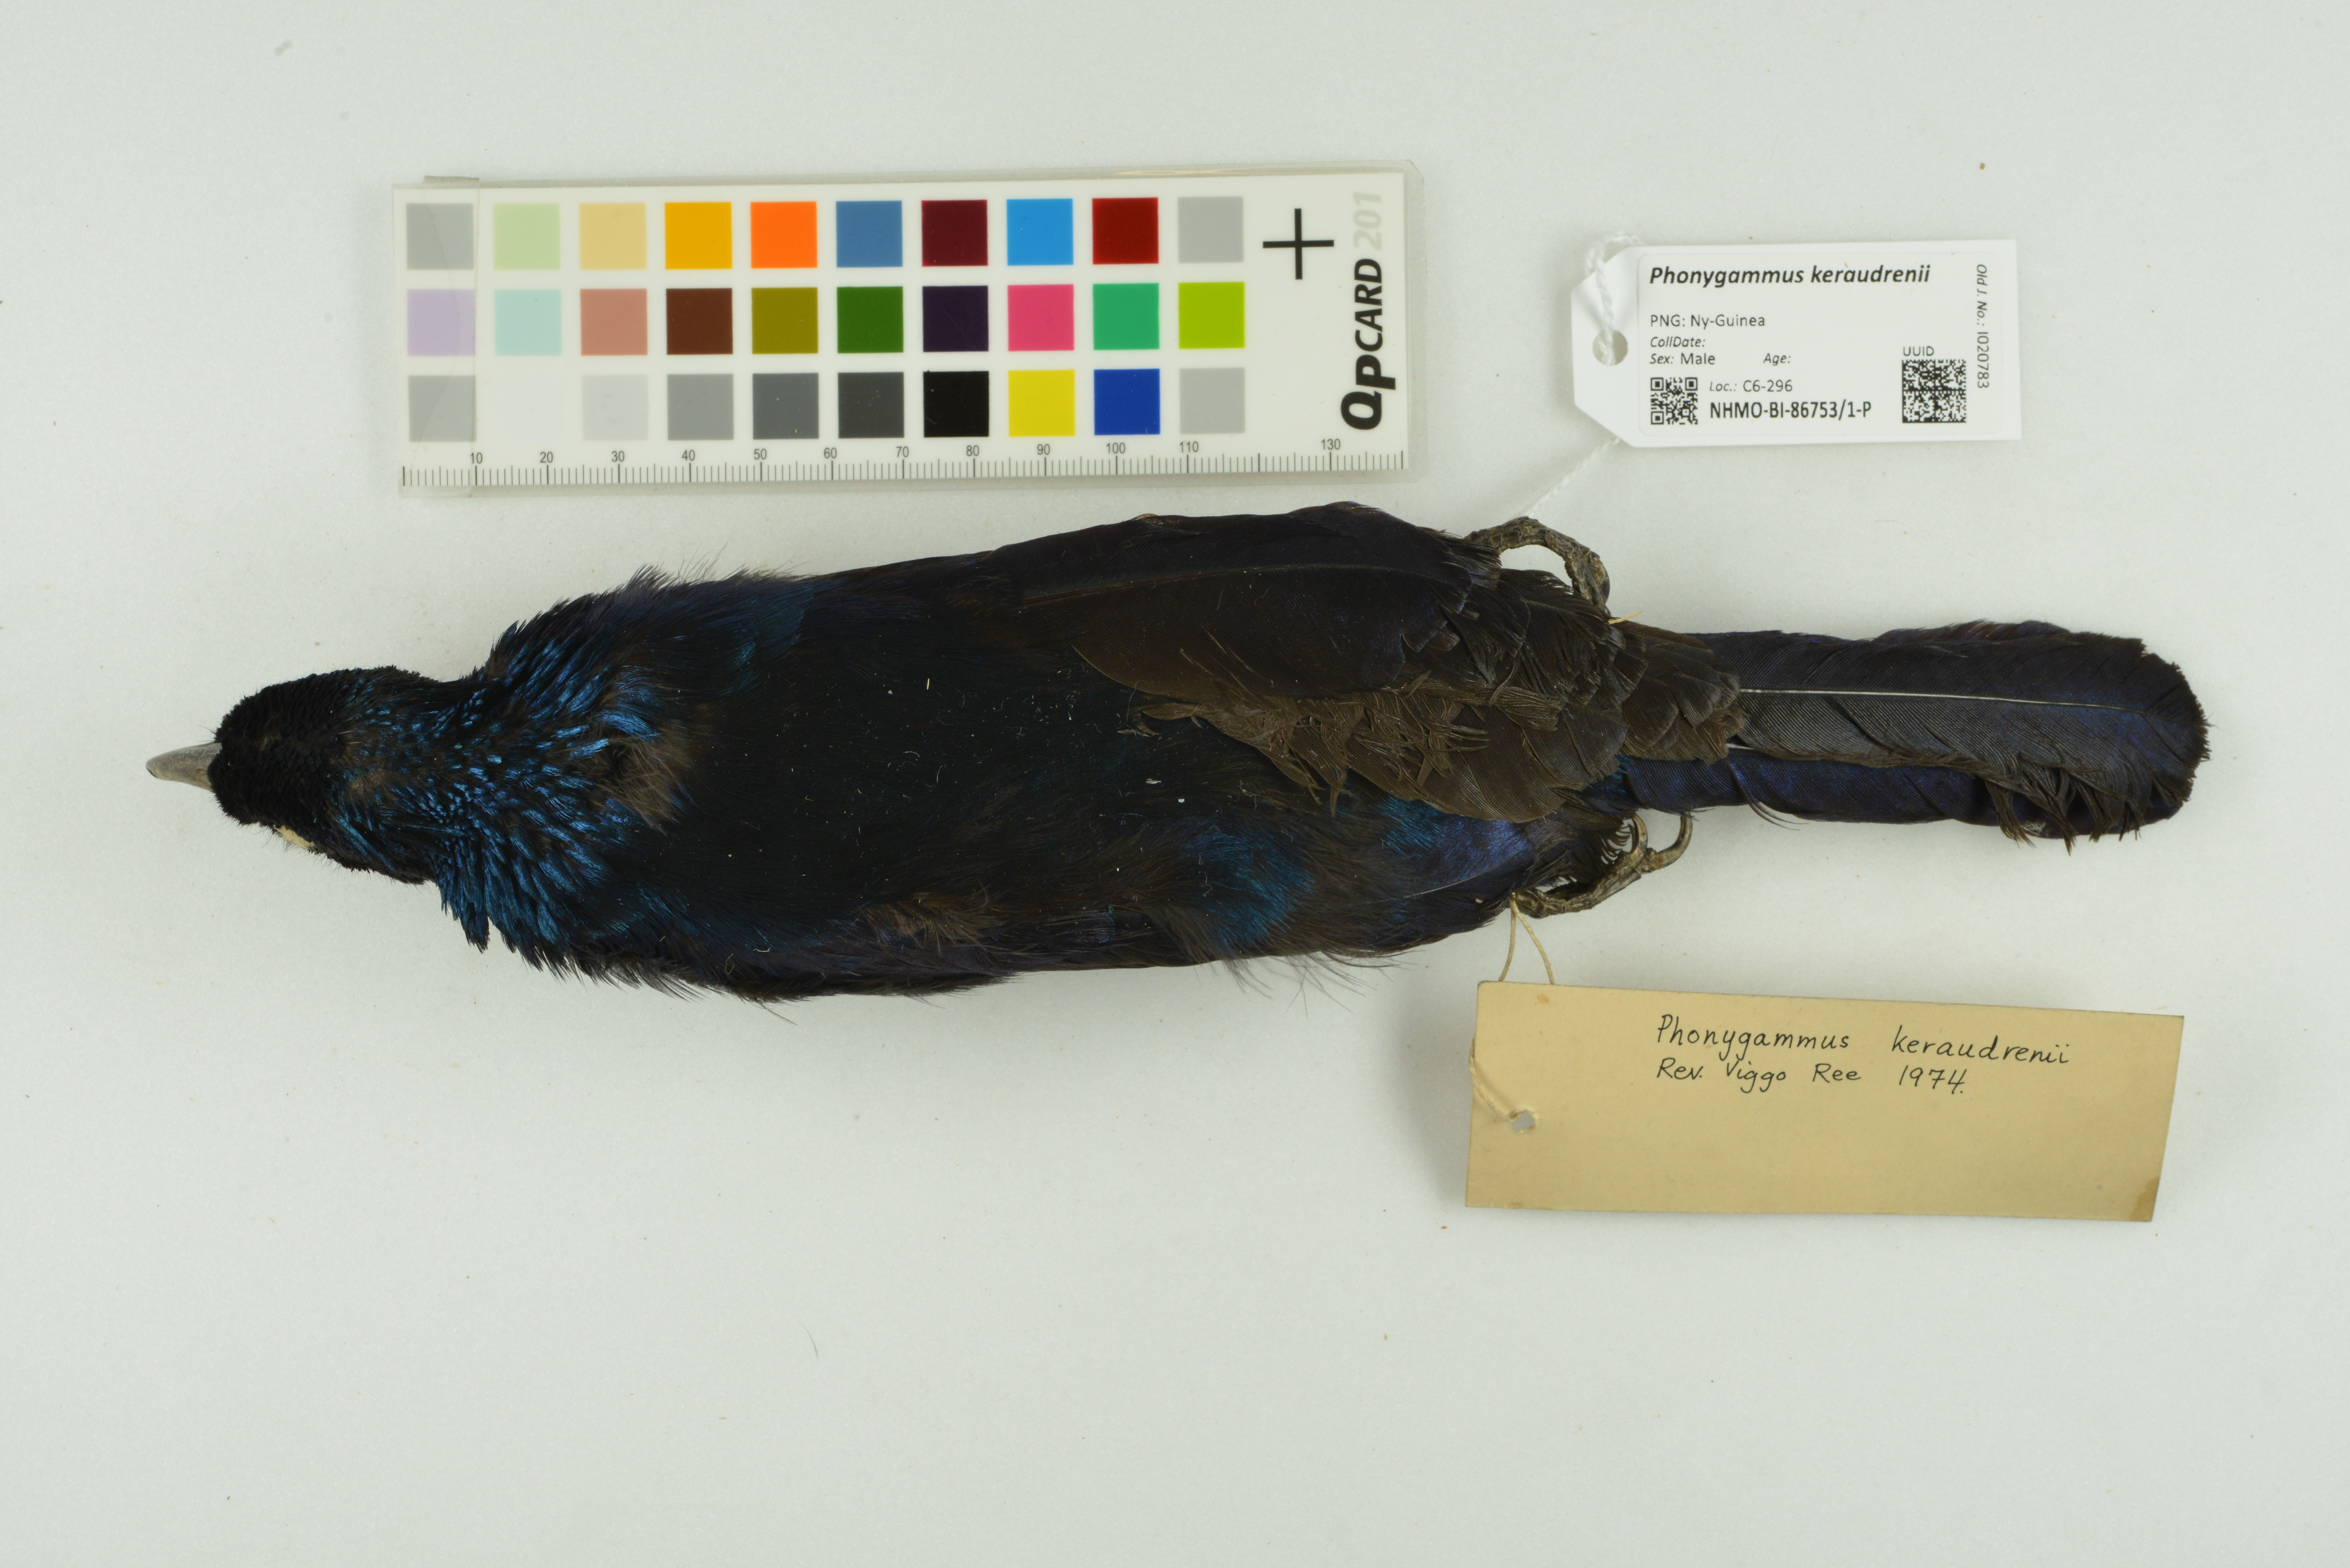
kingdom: Animalia
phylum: Chordata
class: Aves
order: Passeriformes
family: Paradisaeidae
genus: Phonygammus
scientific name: Phonygammus keraudrenii
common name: Trumpet manucode
